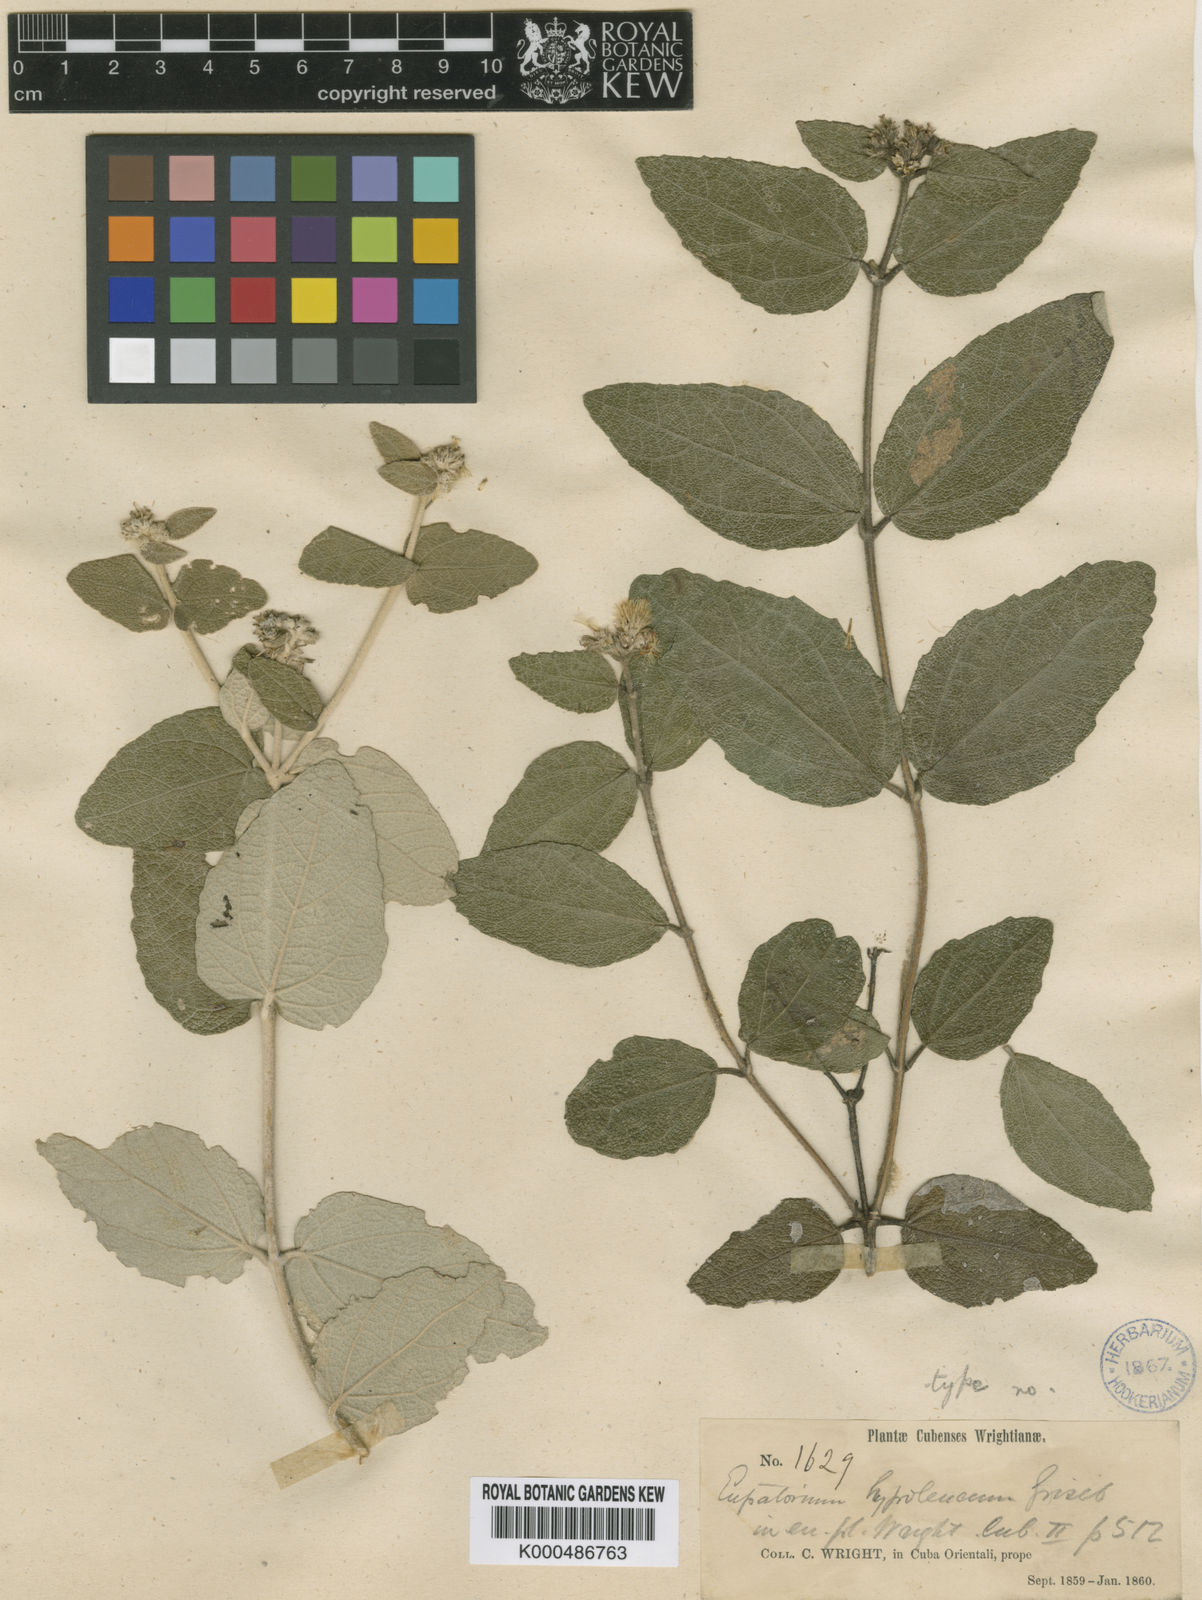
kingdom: Plantae
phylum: Tracheophyta
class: Magnoliopsida
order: Asterales
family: Asteraceae
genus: Grisebachianthus
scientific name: Grisebachianthus hypoleucus
